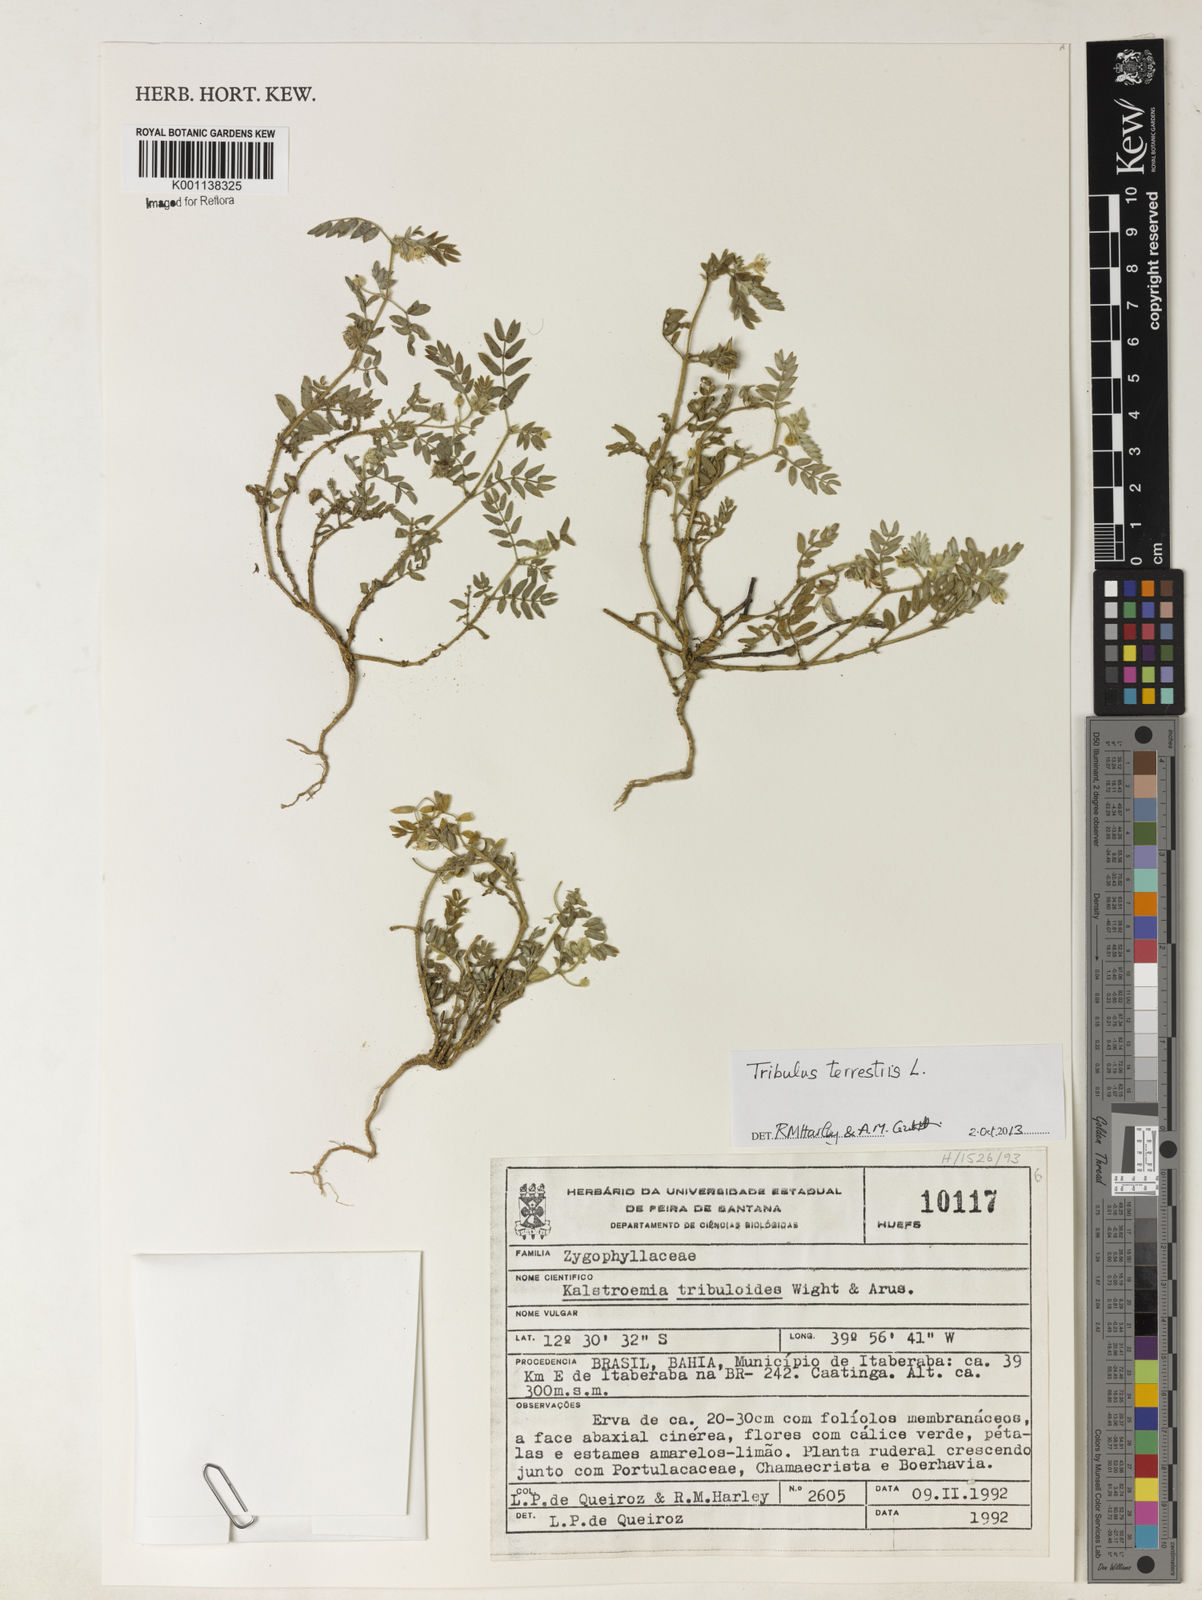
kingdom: Plantae
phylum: Tracheophyta
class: Magnoliopsida
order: Zygophyllales
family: Zygophyllaceae
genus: Tribulus
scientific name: Tribulus
